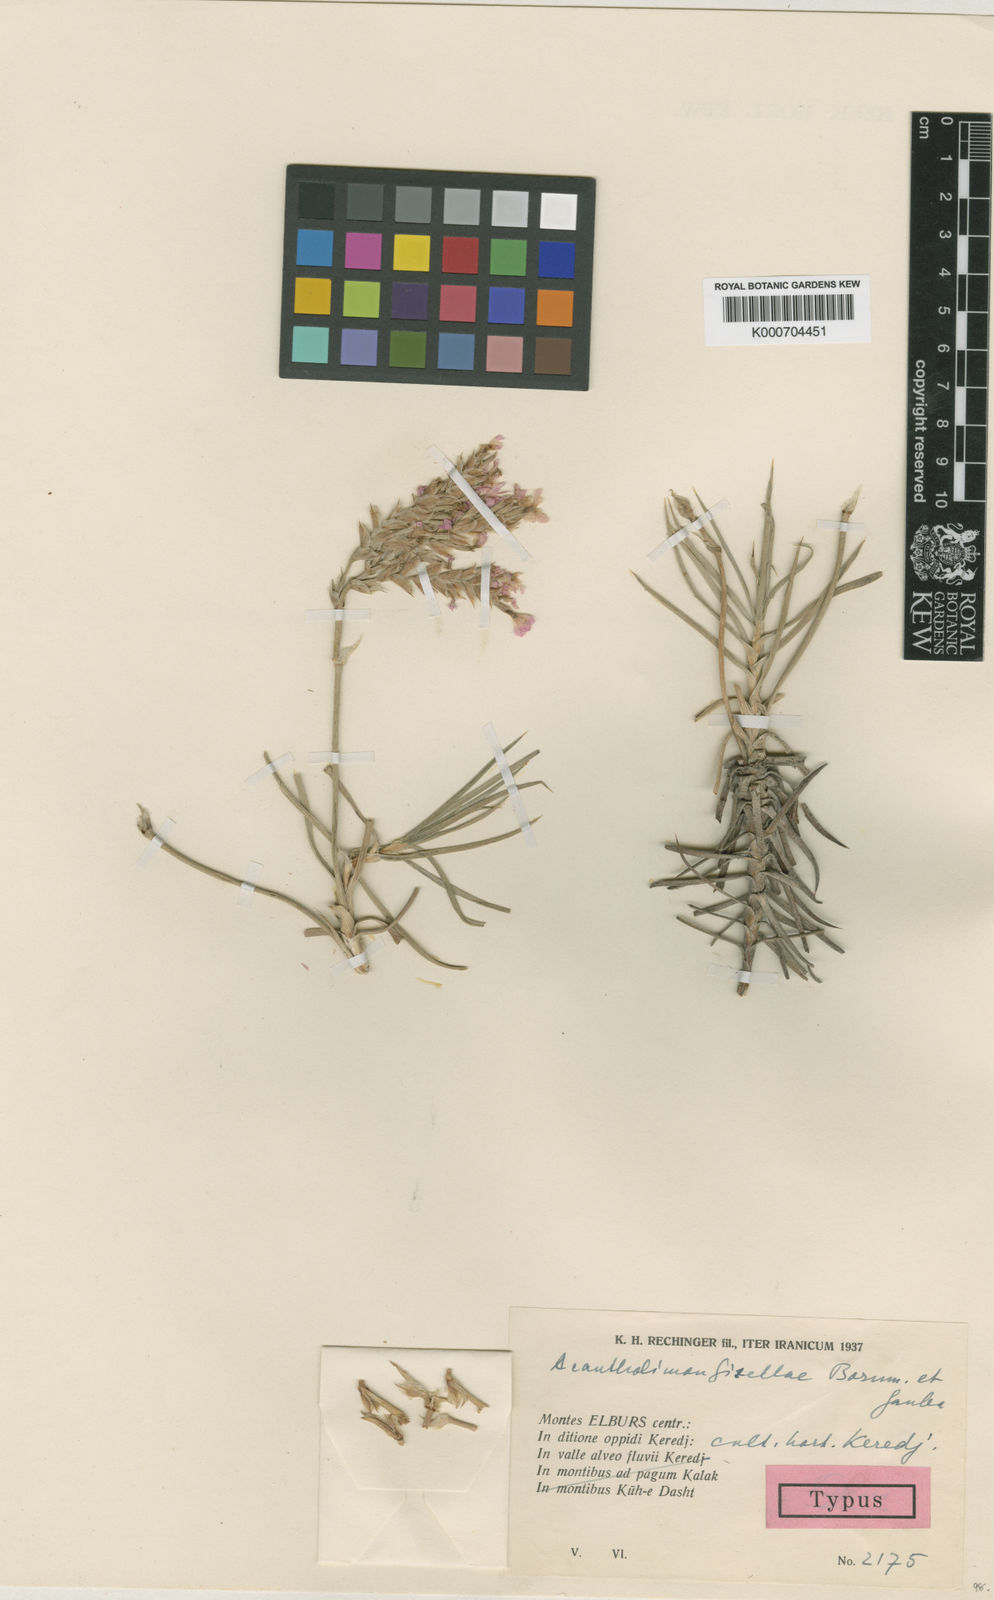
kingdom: Plantae
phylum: Tracheophyta
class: Magnoliopsida
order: Caryophyllales
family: Plumbaginaceae
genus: Acantholimon
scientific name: Acantholimon acmostegium
